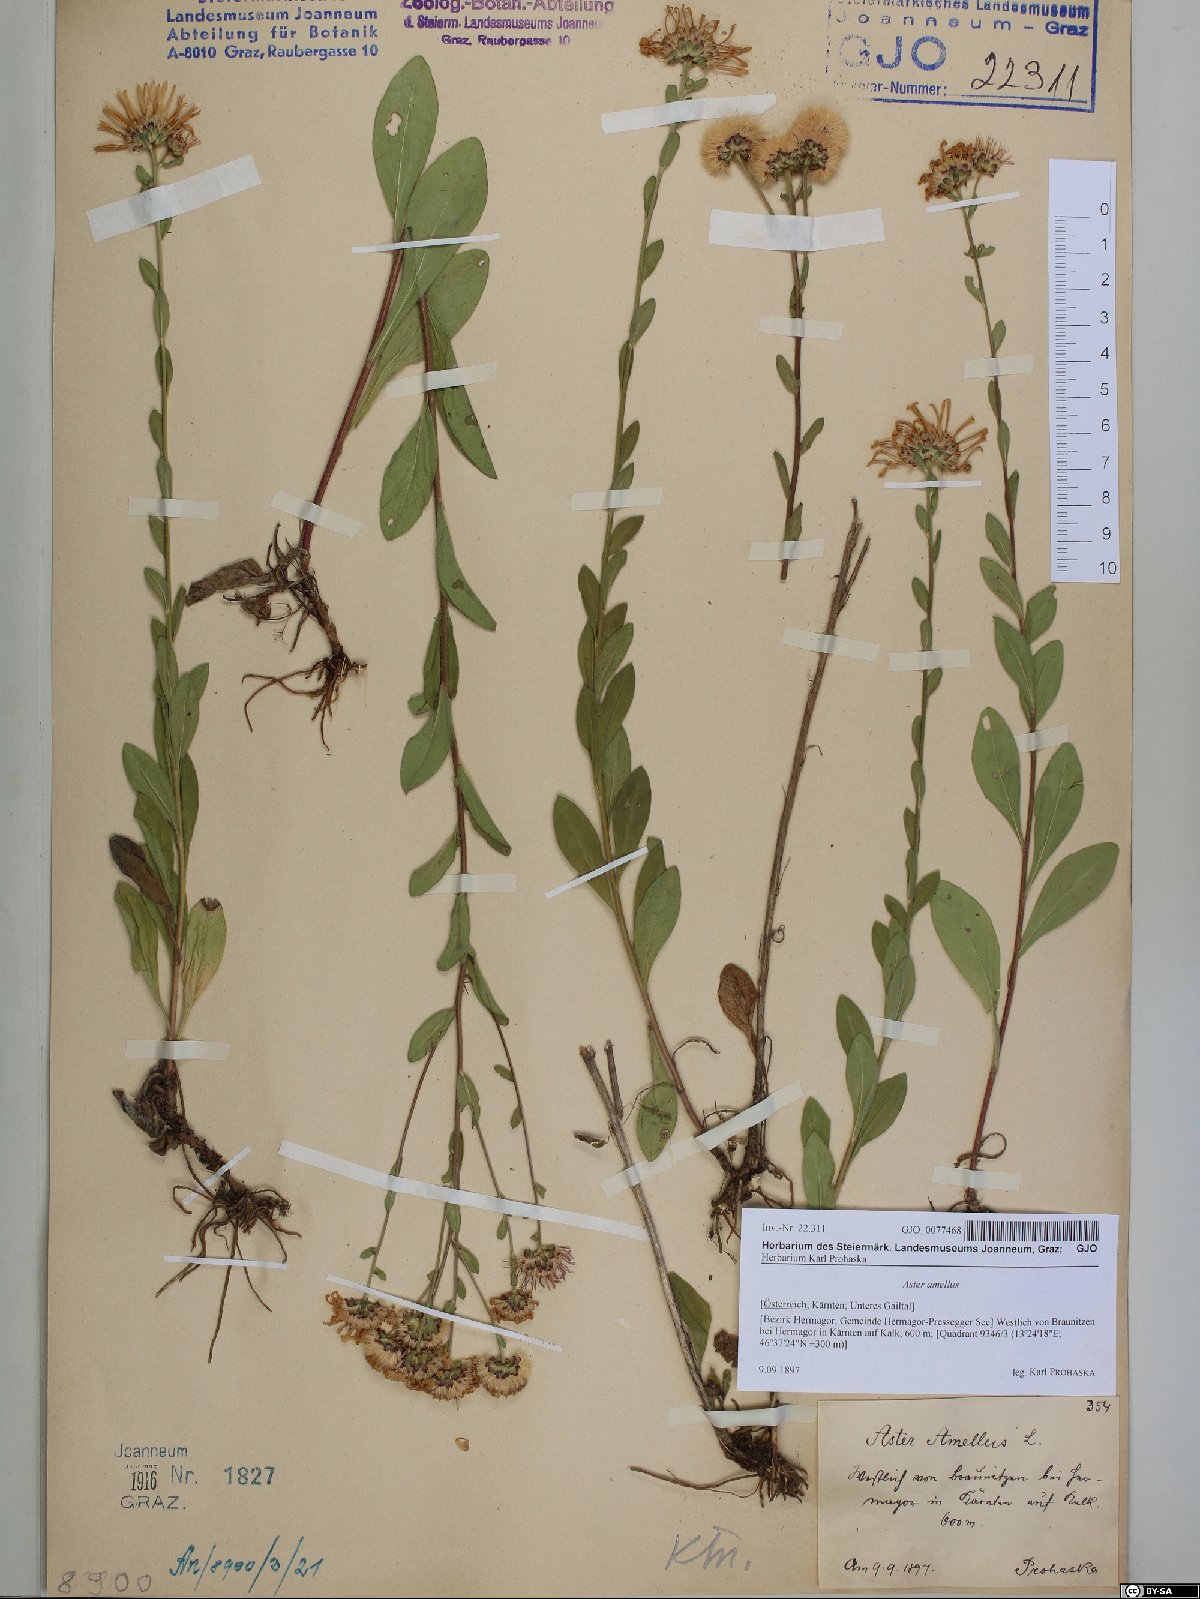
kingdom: Plantae
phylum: Tracheophyta
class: Magnoliopsida
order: Asterales
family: Asteraceae
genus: Aster
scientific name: Aster amellus
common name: European michaelmas daisy
